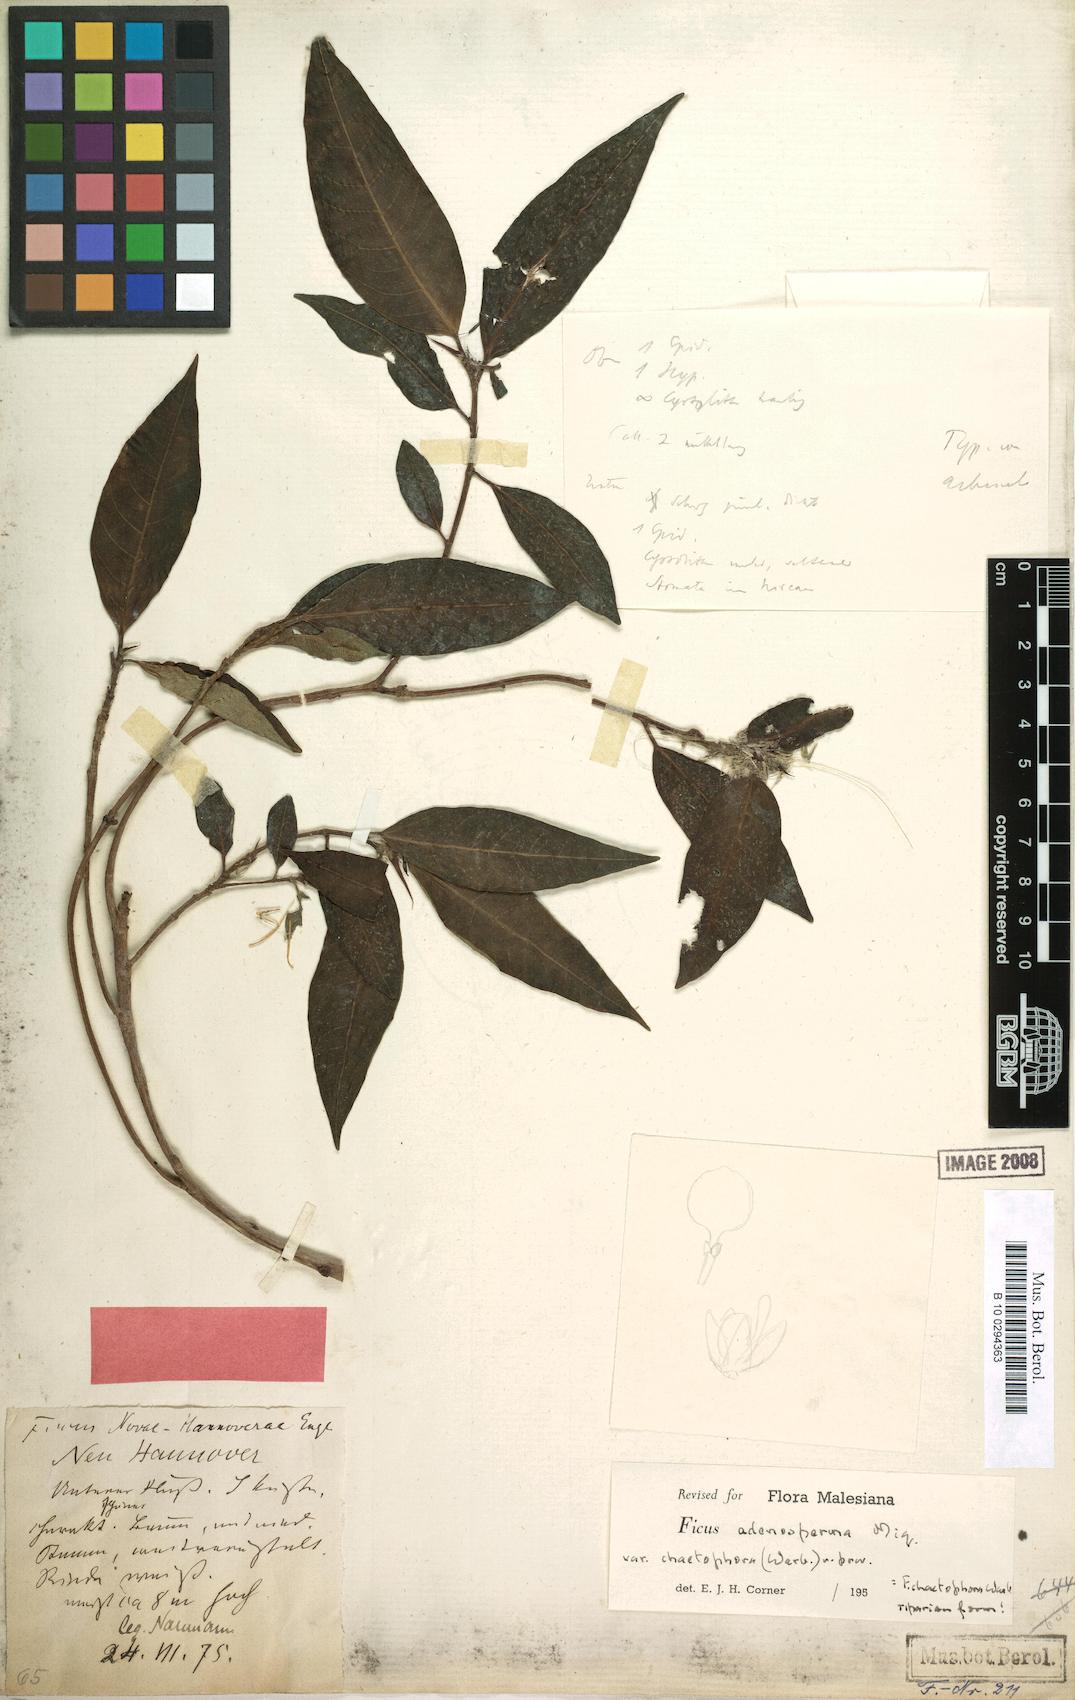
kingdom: Plantae
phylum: Tracheophyta
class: Magnoliopsida
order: Rosales
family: Moraceae
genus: Ficus
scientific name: Ficus adenosperma
